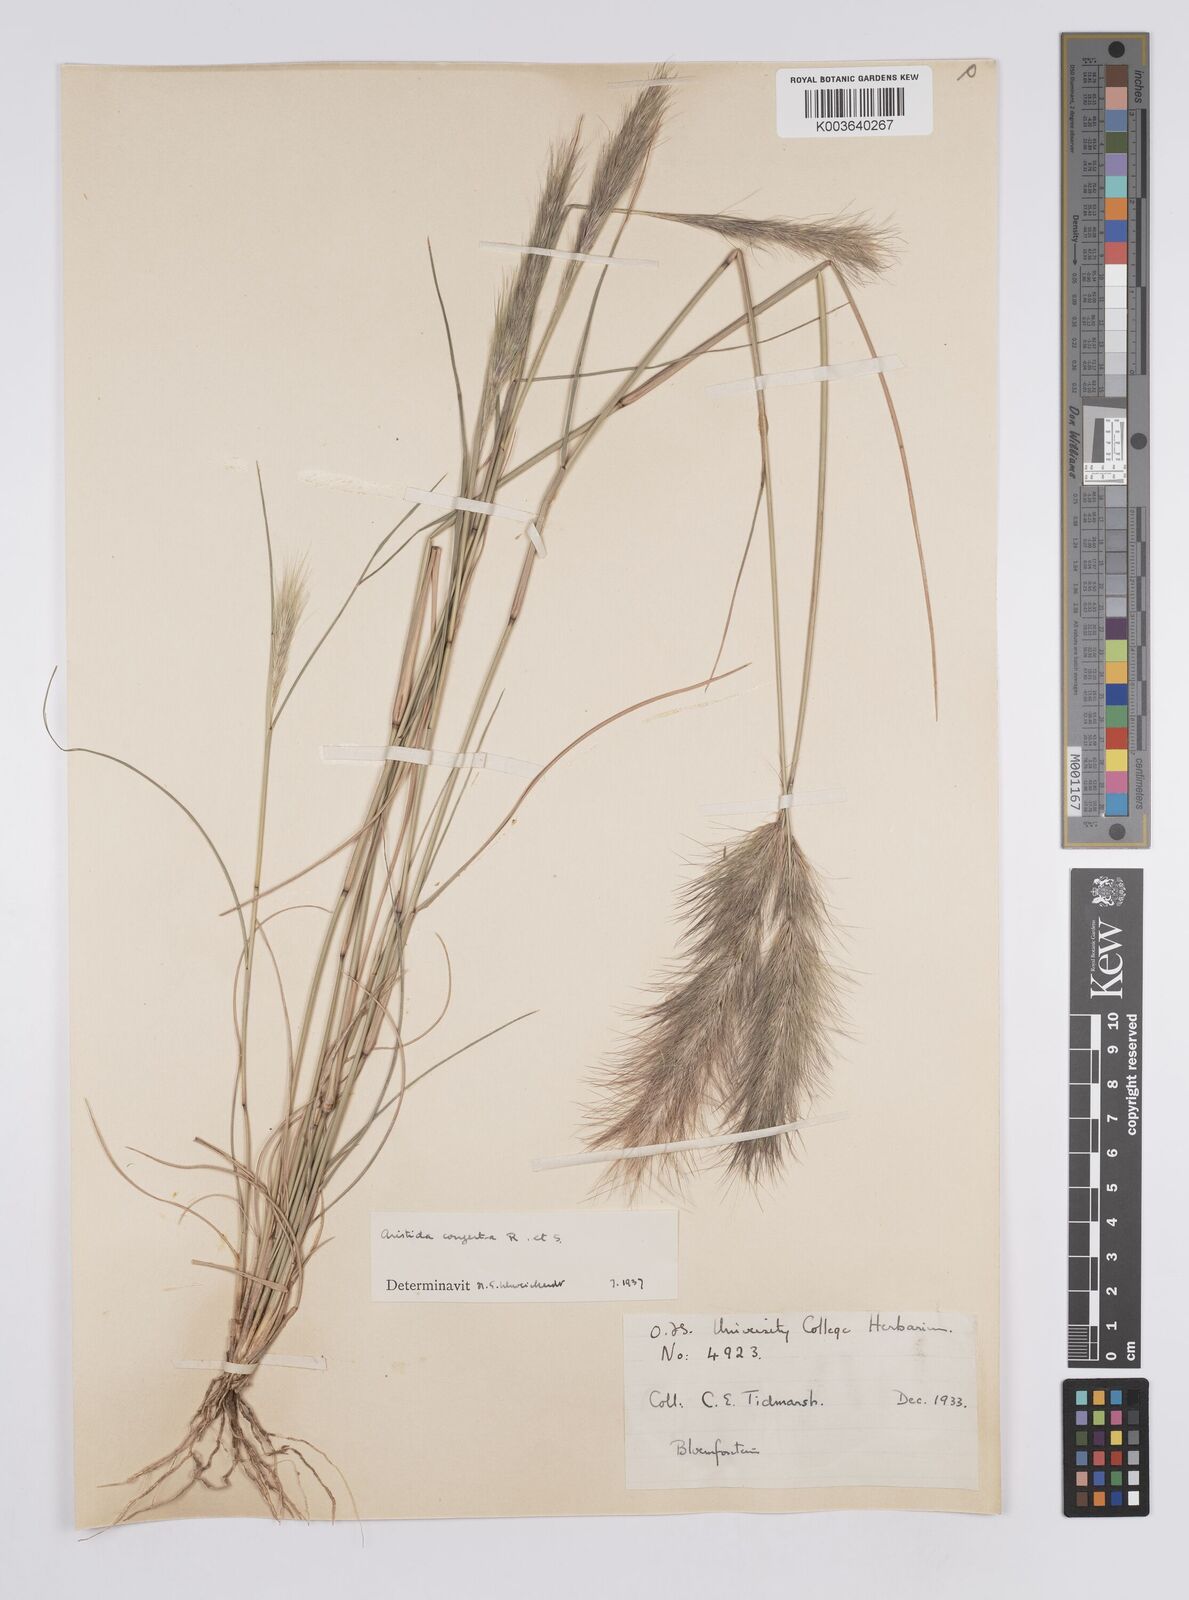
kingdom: Plantae
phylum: Tracheophyta
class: Liliopsida
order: Poales
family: Poaceae
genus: Aristida
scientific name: Aristida congesta
